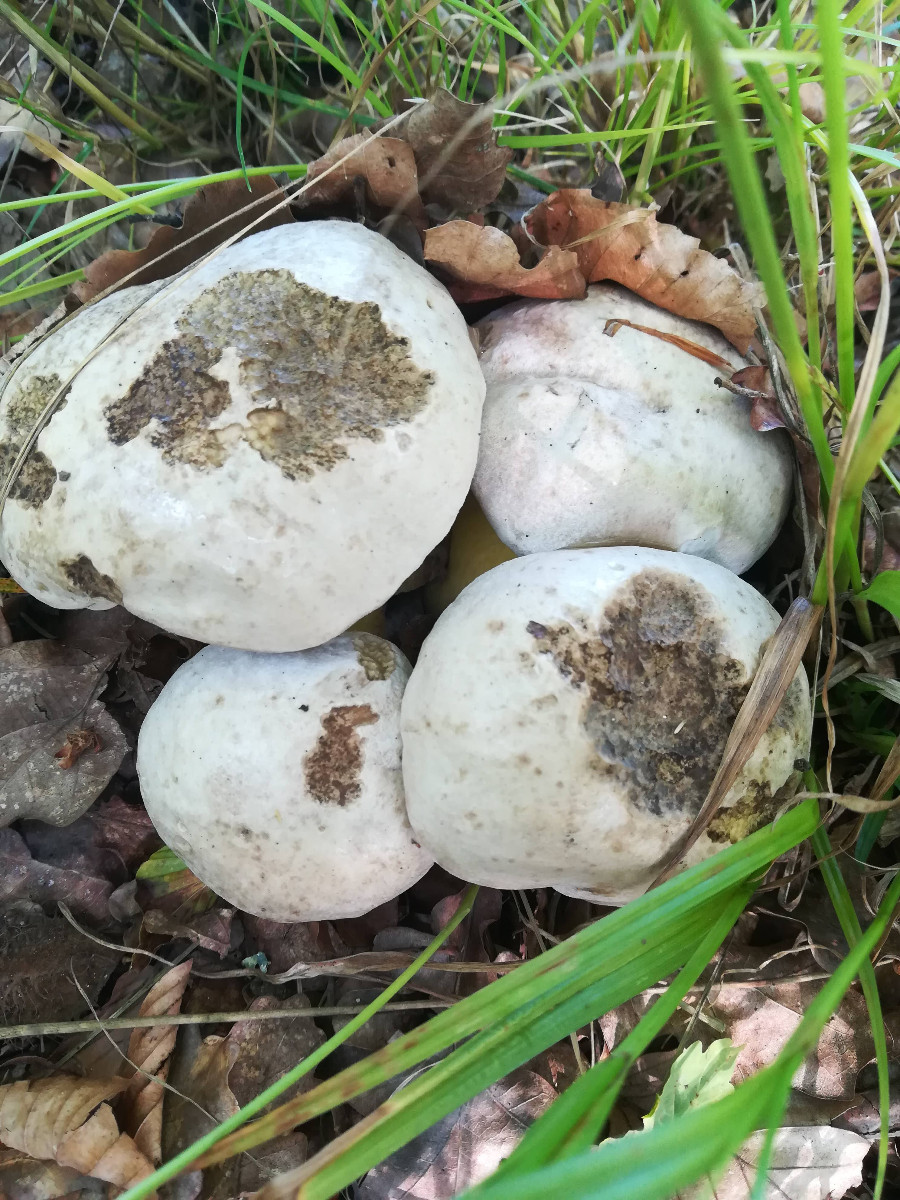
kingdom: Fungi
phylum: Basidiomycota
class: Agaricomycetes
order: Boletales
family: Boletaceae
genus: Caloboletus
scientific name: Caloboletus radicans
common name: rod-rørhat
